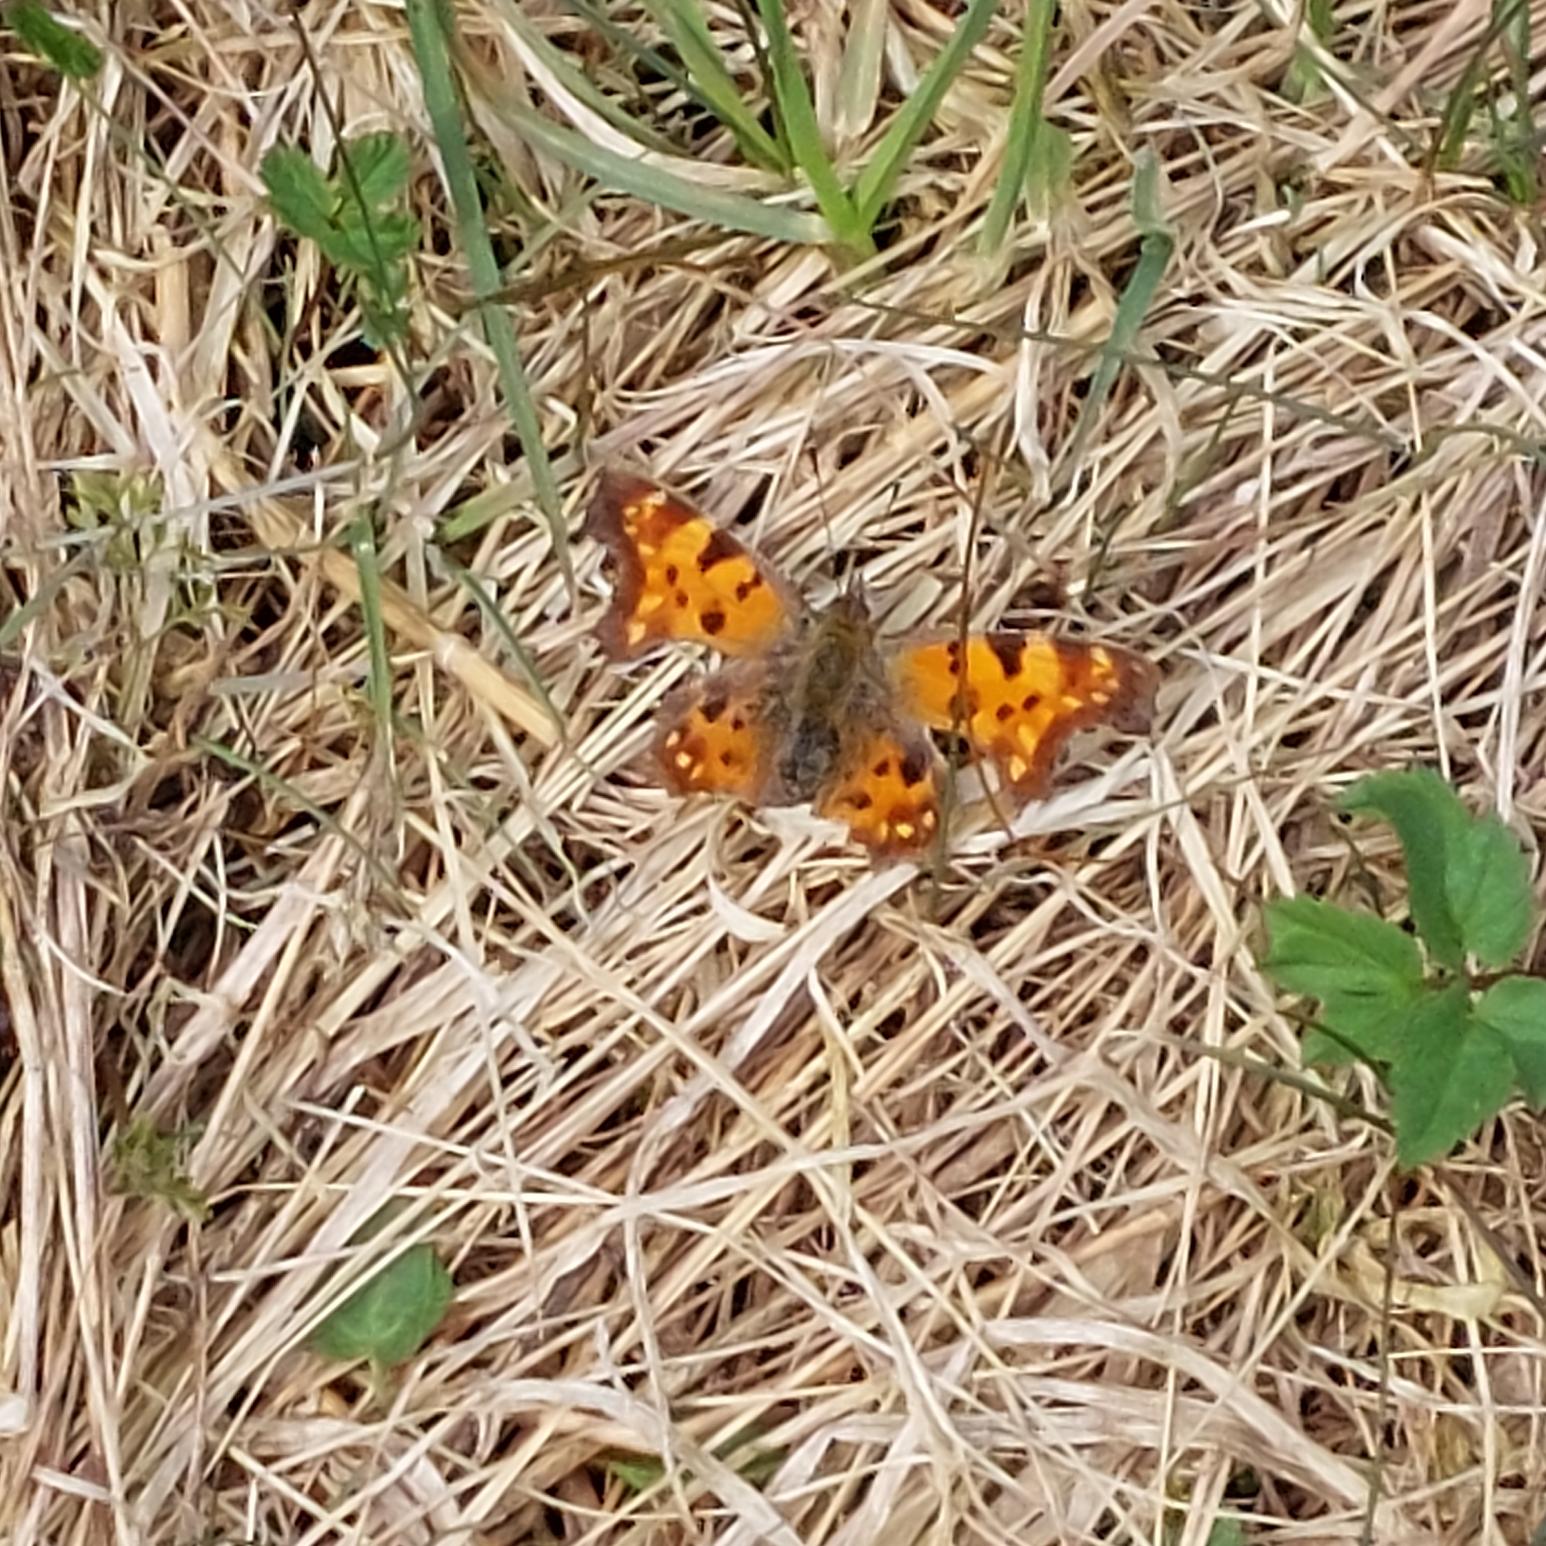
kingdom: Animalia
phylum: Arthropoda
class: Insecta
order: Lepidoptera
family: Nymphalidae
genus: Polygonia
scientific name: Polygonia c-album
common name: Det hvide C
